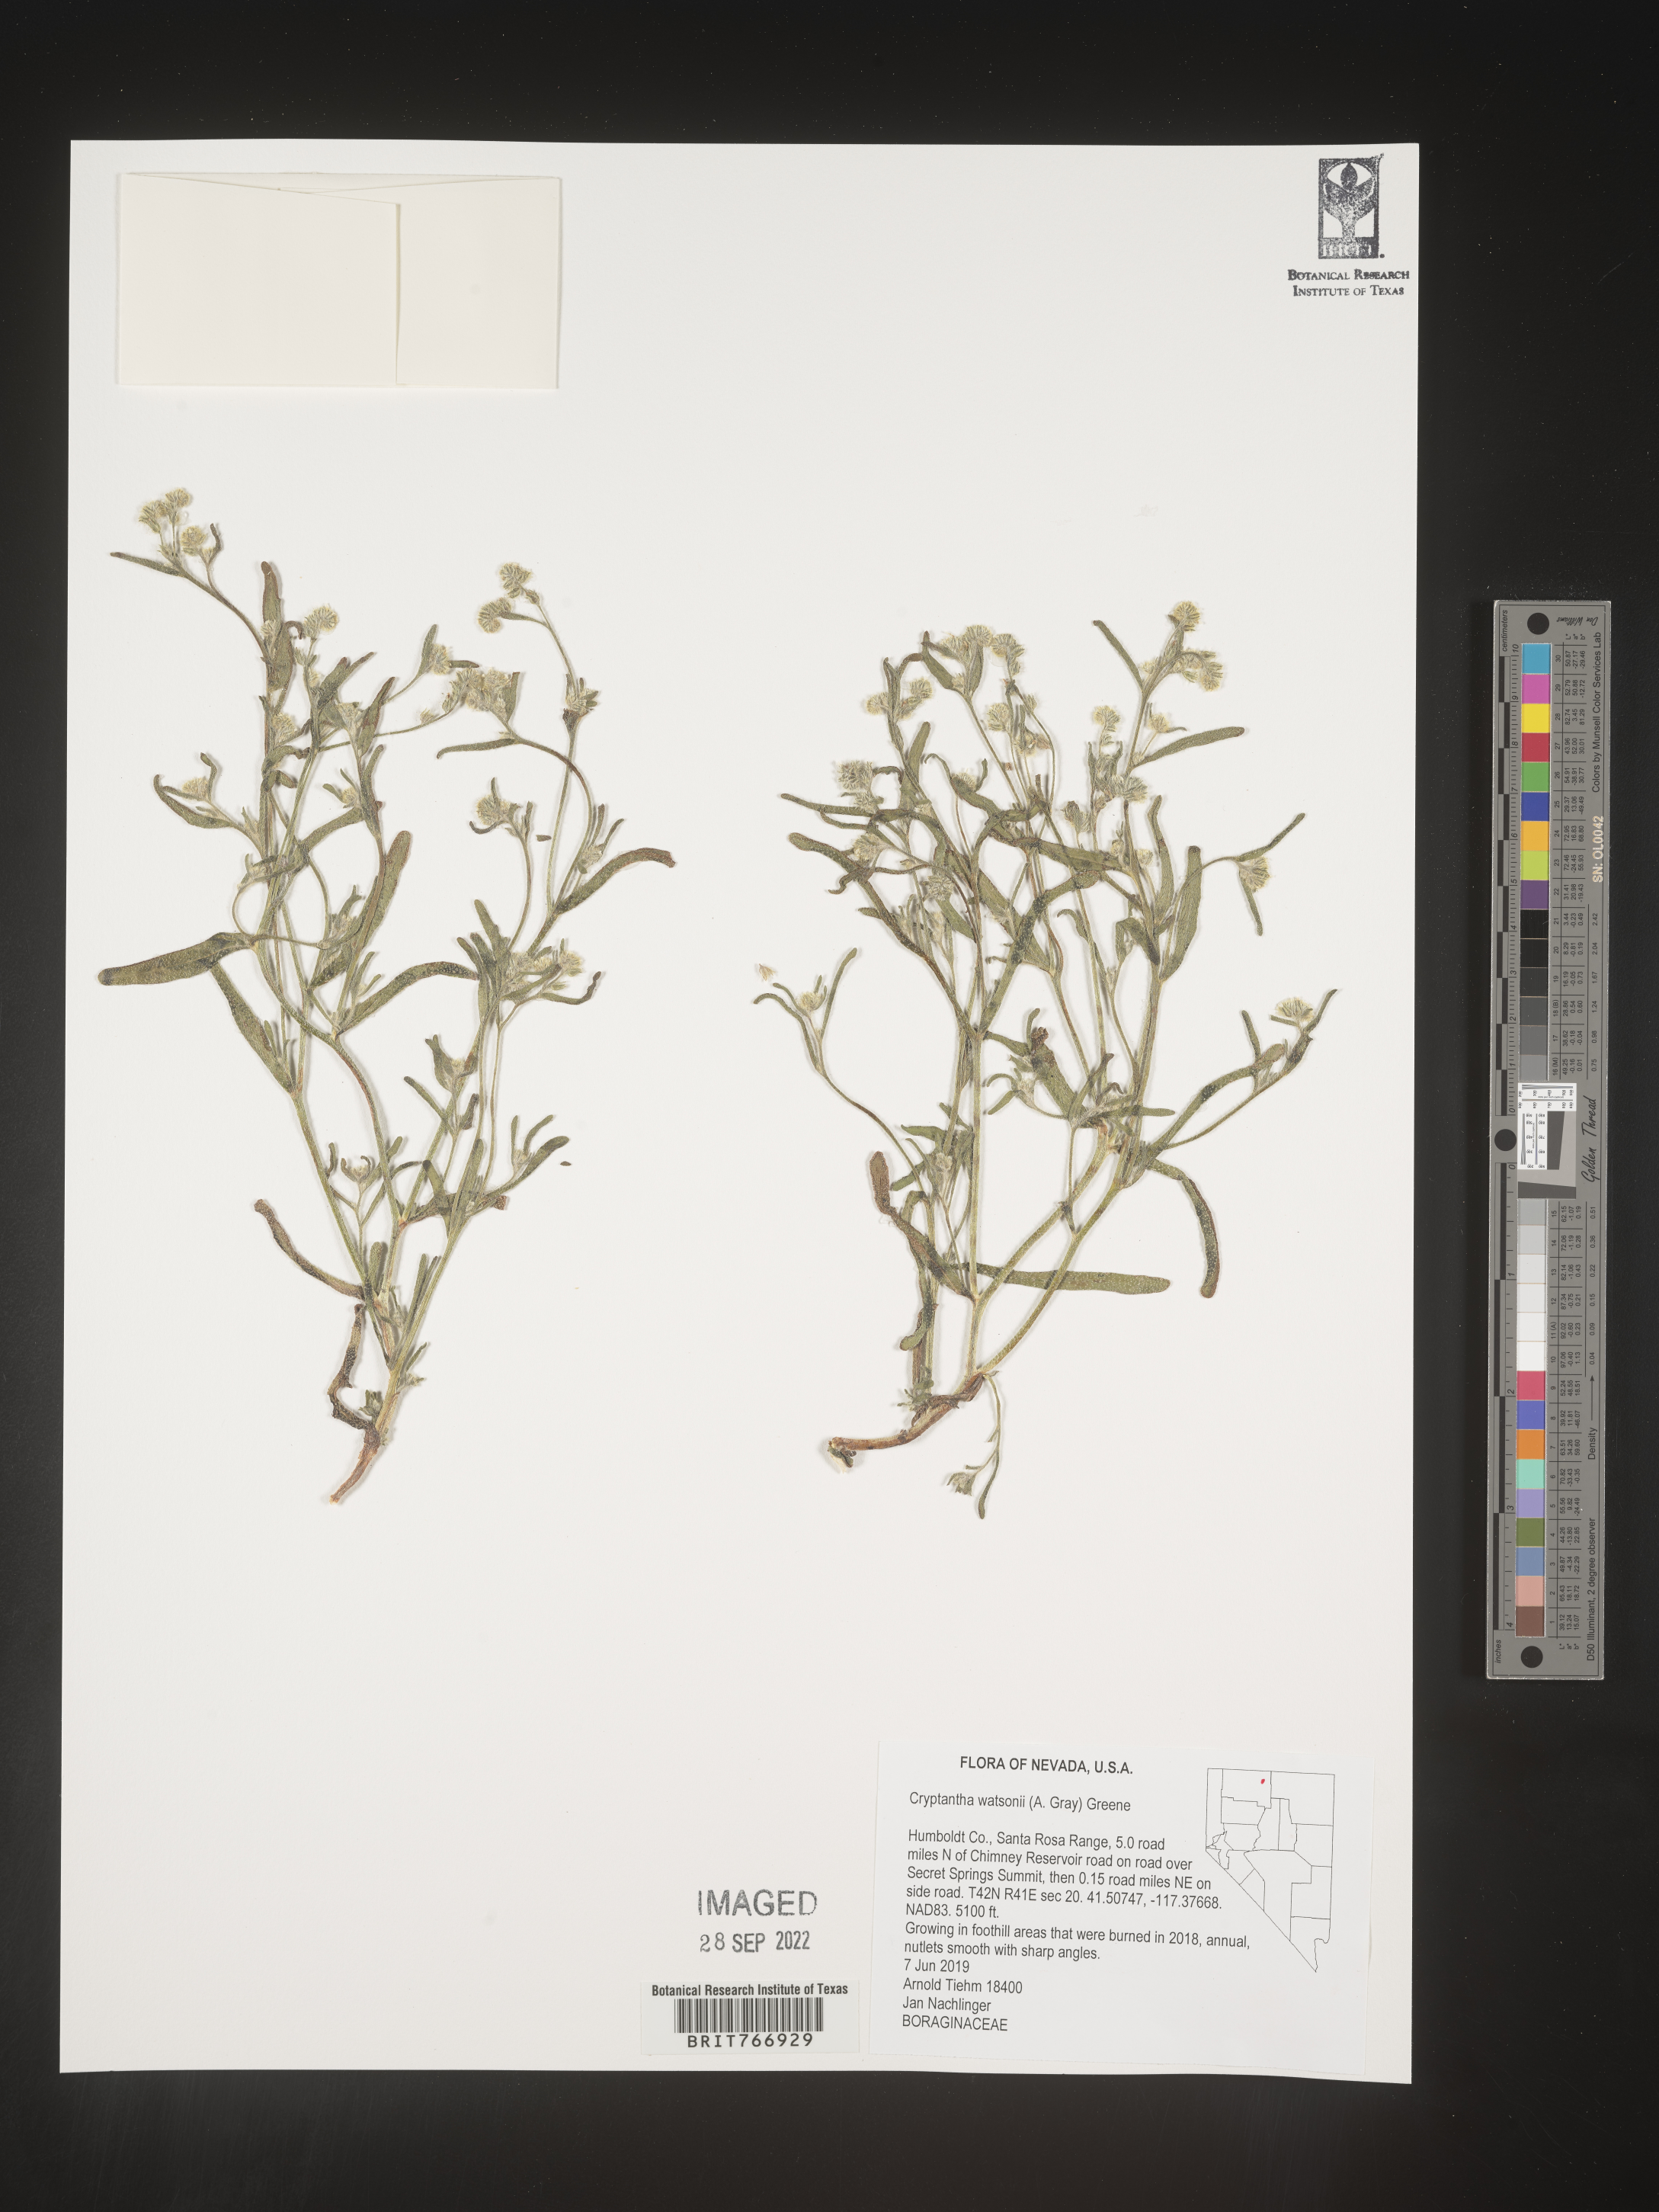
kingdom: Plantae
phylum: Tracheophyta
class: Magnoliopsida
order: Boraginales
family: Boraginaceae
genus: Cryptantha
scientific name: Cryptantha
